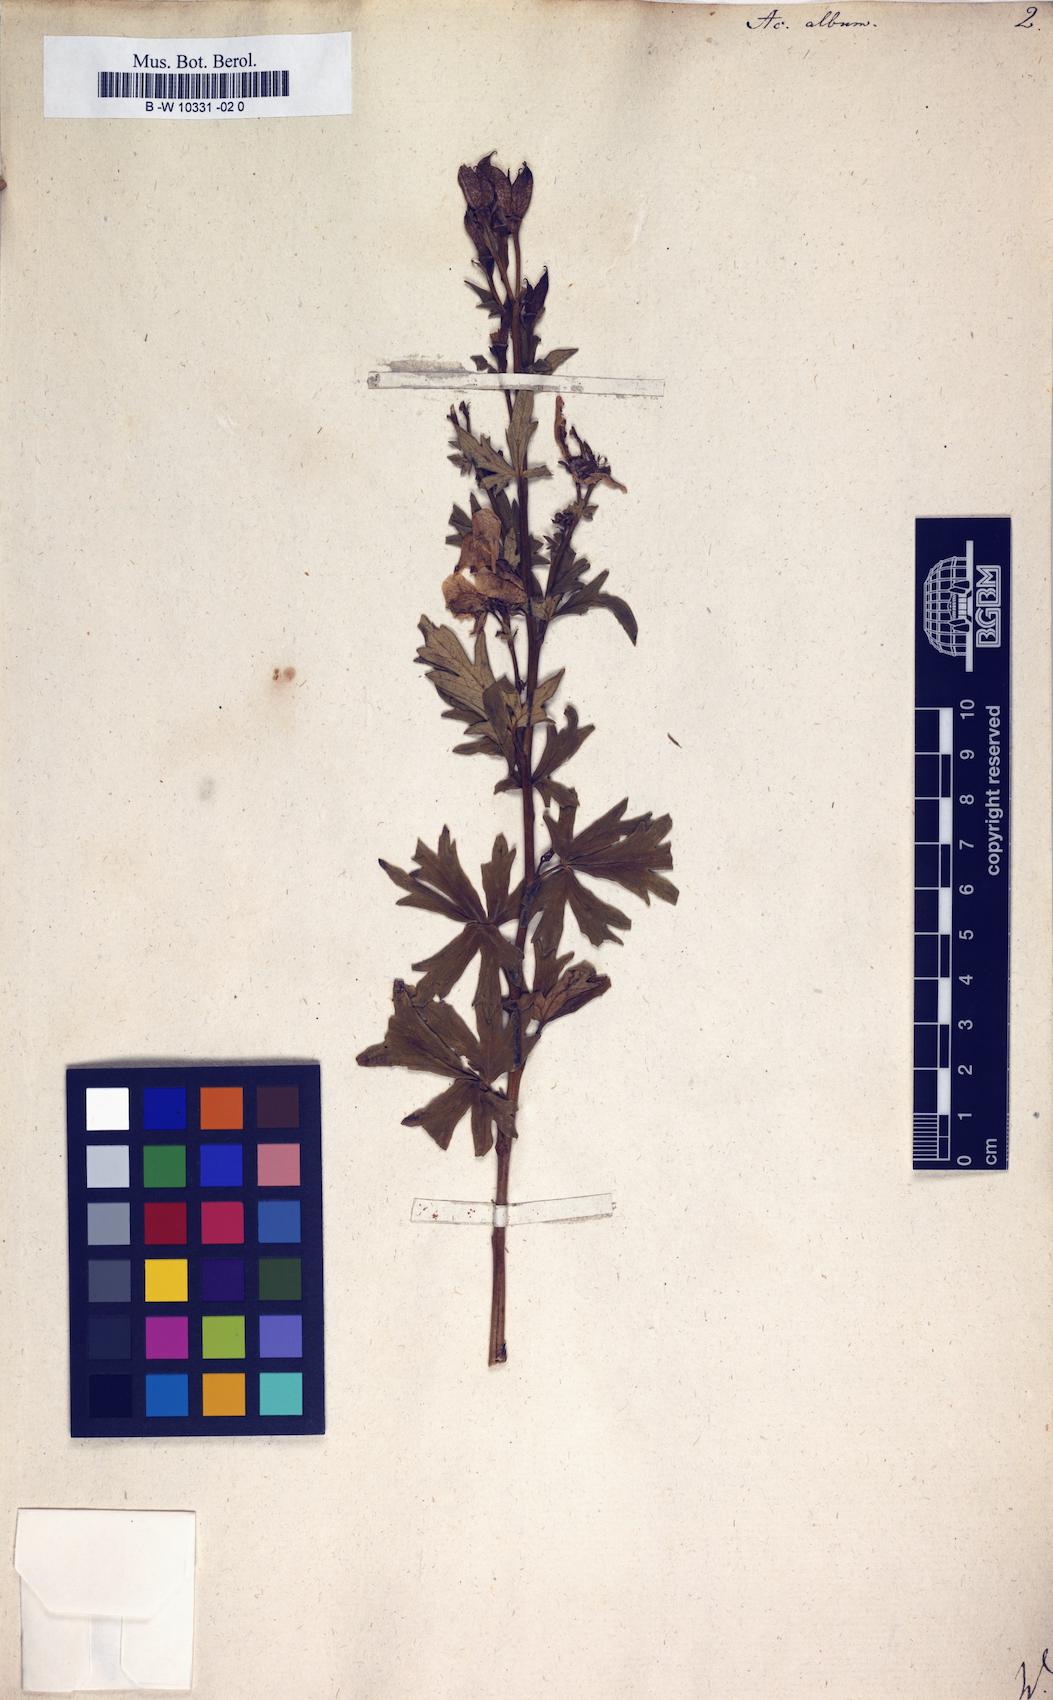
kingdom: Plantae
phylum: Tracheophyta
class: Magnoliopsida
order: Ranunculales
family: Ranunculaceae
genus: Aconitum
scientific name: Aconitum variegatum
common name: Manchurian monkshood
